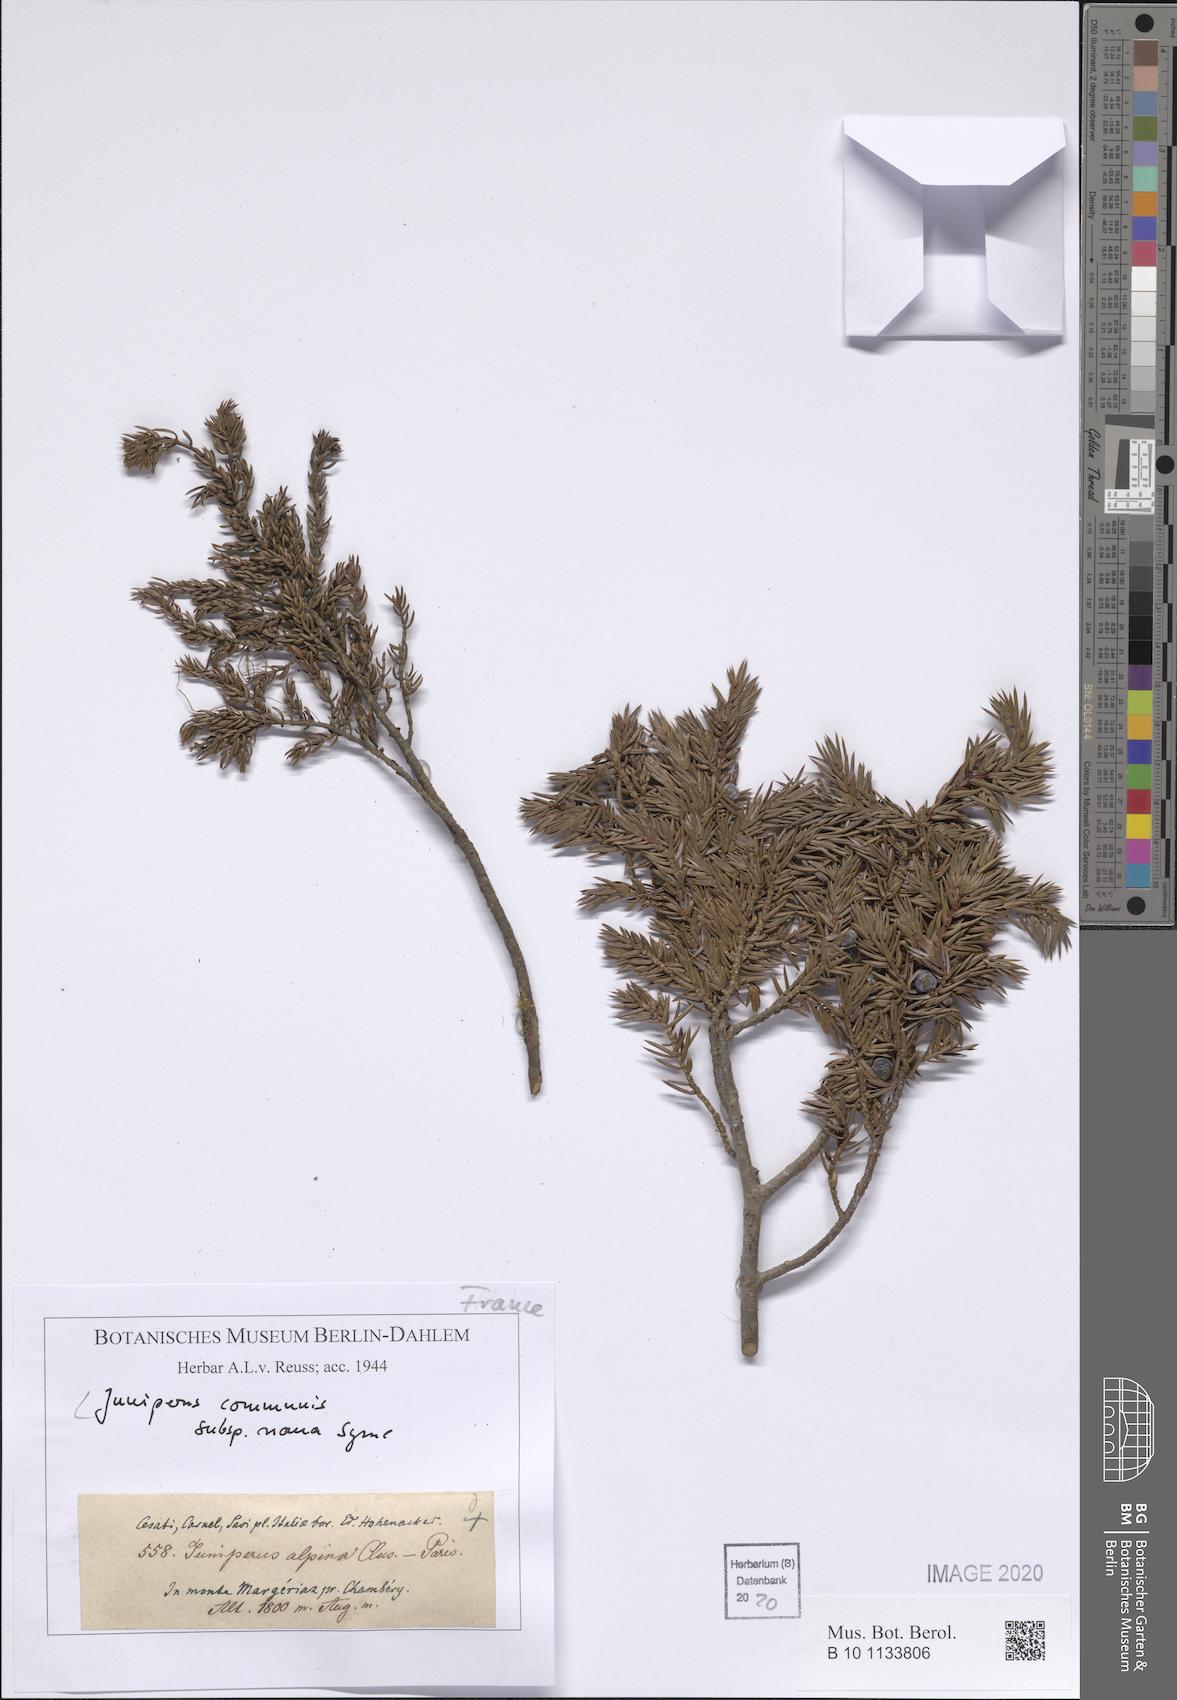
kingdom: Plantae
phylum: Tracheophyta
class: Pinopsida
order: Pinales
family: Cupressaceae
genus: Juniperus
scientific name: Juniperus communis
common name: Common juniper
